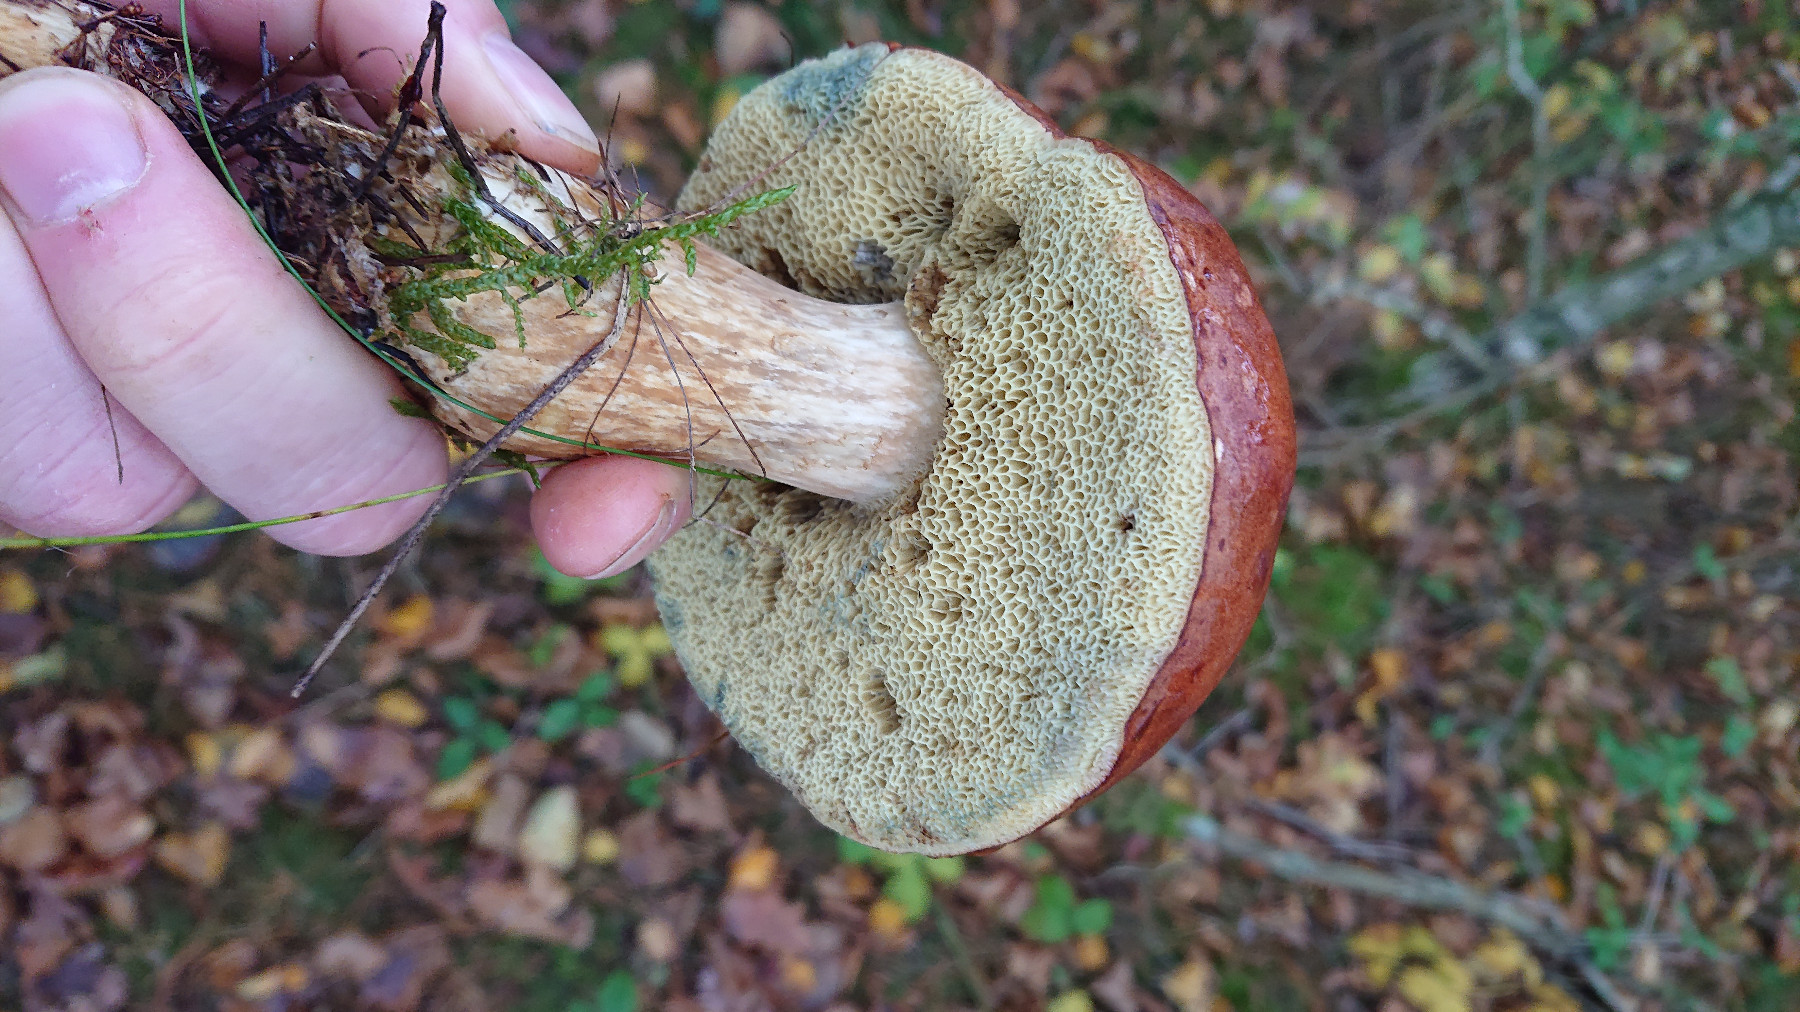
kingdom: Fungi
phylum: Basidiomycota
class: Agaricomycetes
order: Boletales
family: Boletaceae
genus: Imleria
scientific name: Imleria badia
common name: brunstokket rørhat
